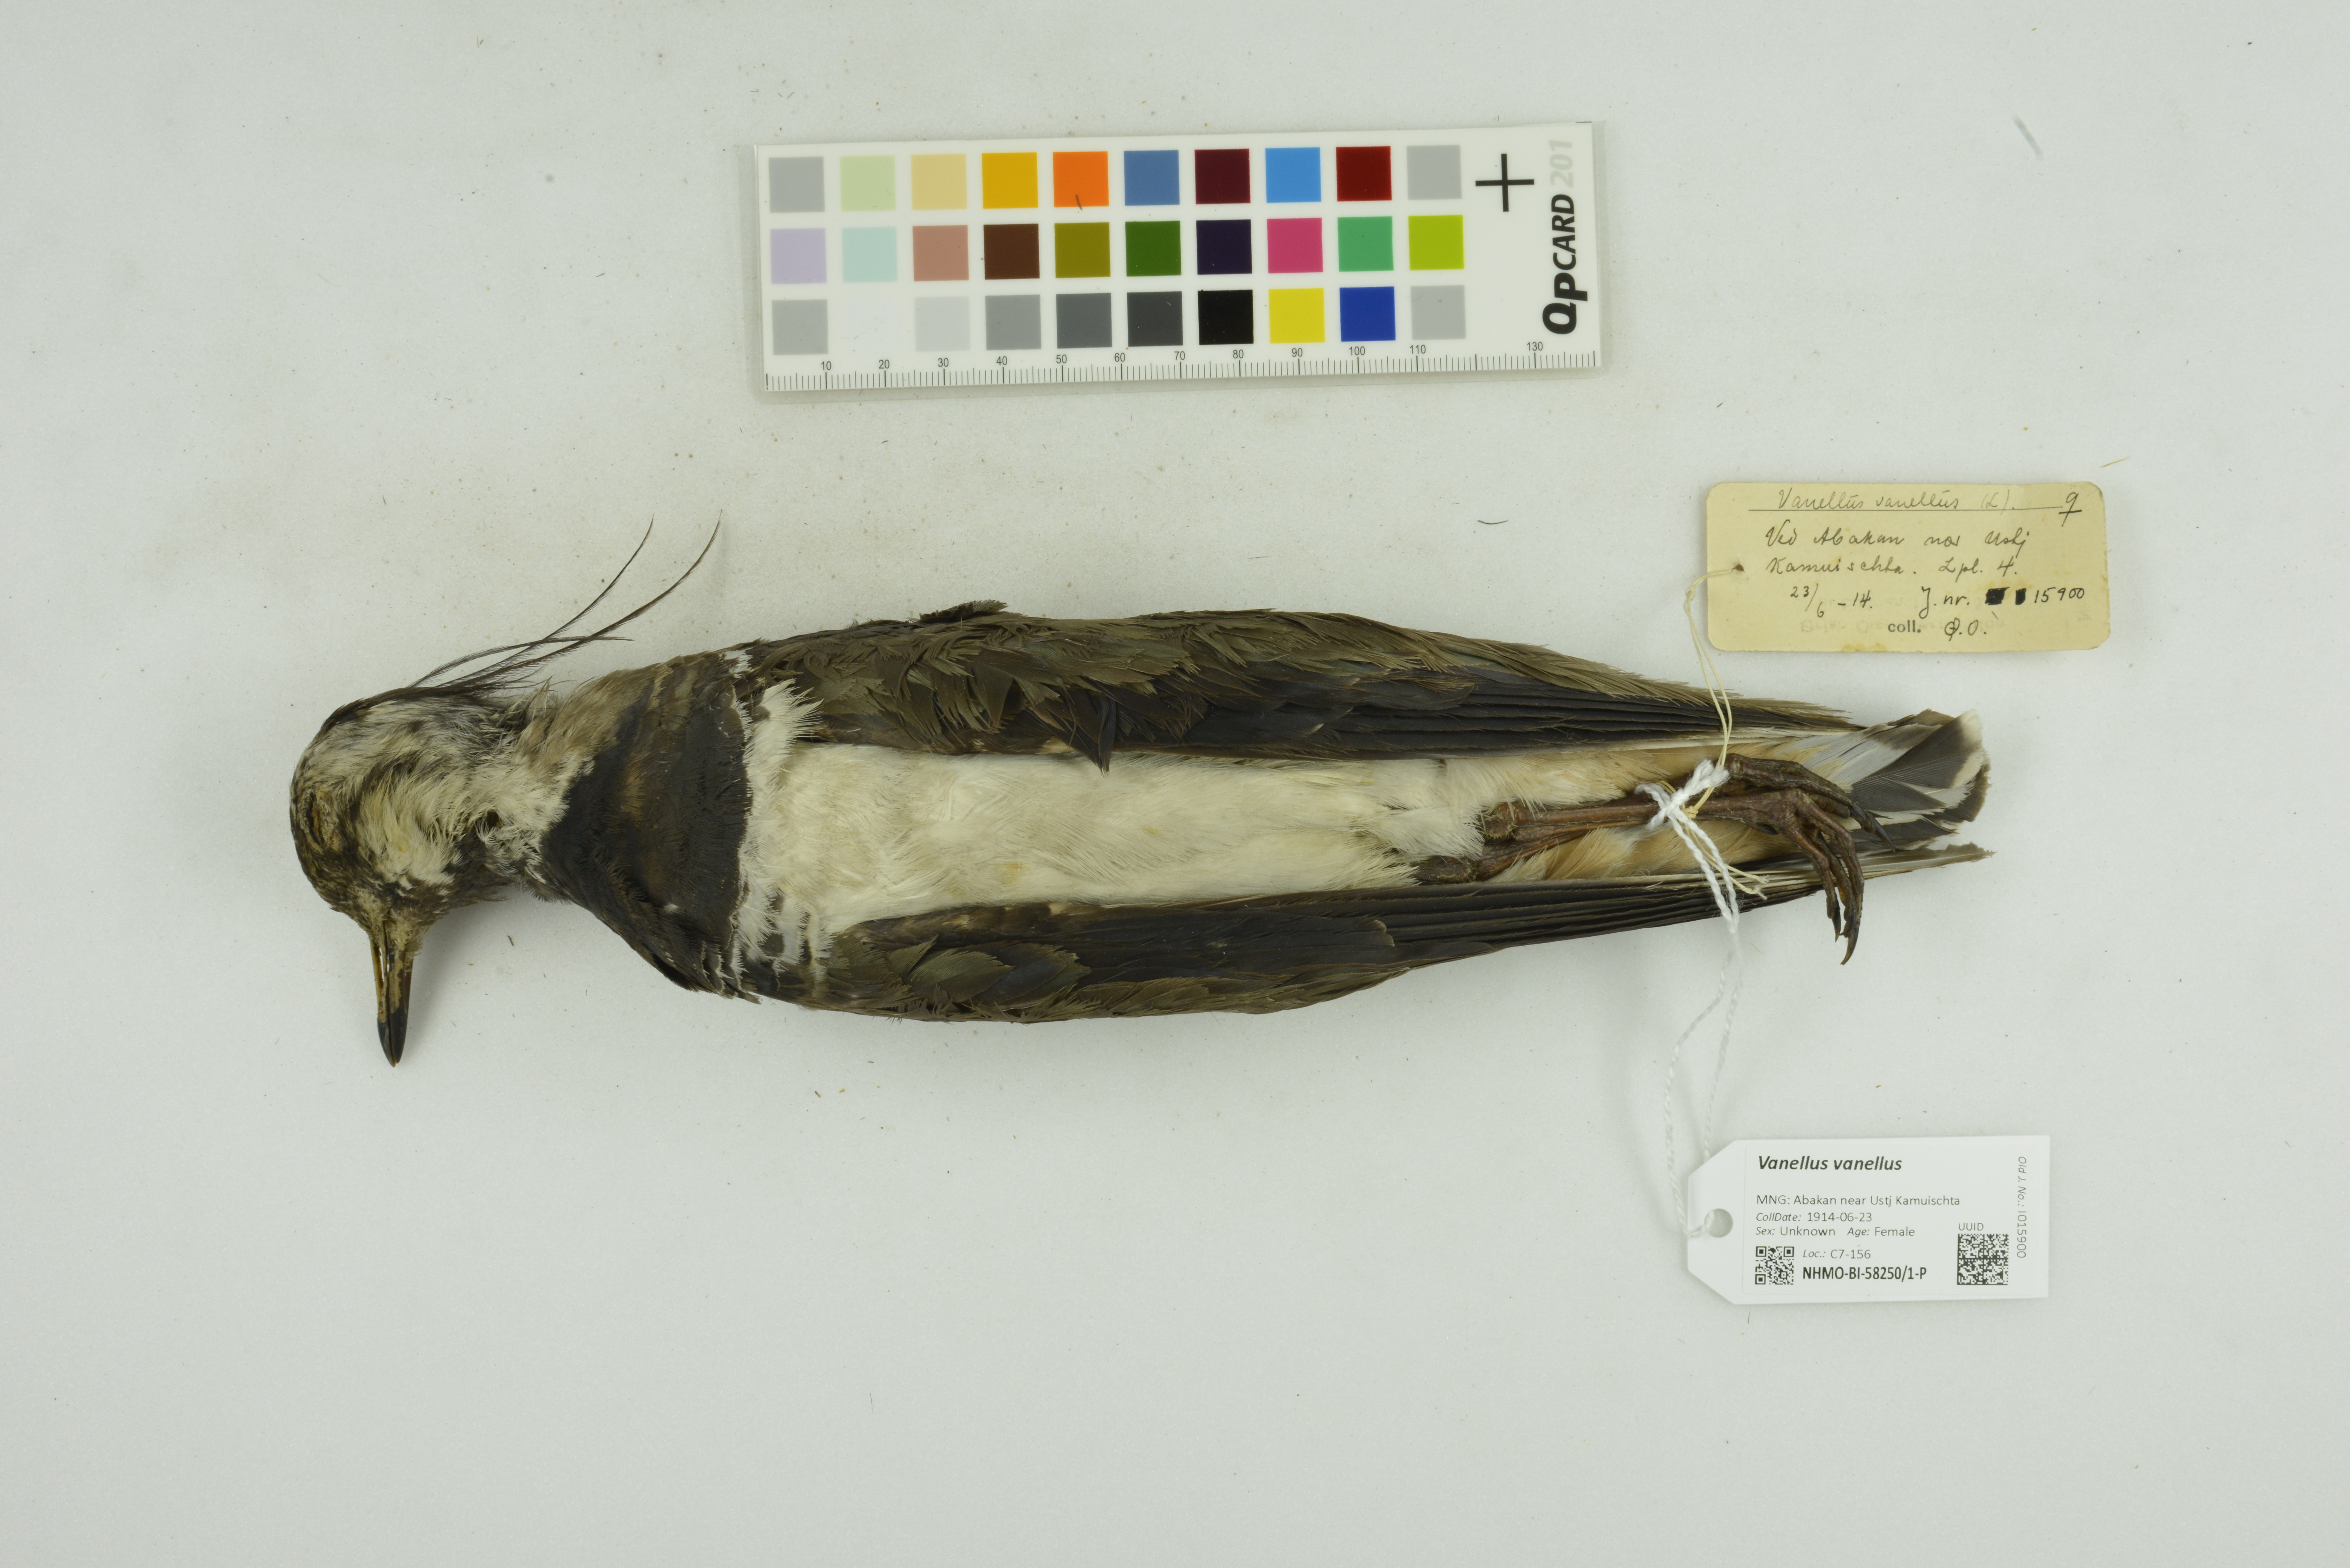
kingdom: Animalia
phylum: Chordata
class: Aves
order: Charadriiformes
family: Charadriidae
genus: Vanellus
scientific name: Vanellus vanellus
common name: Northern lapwing
